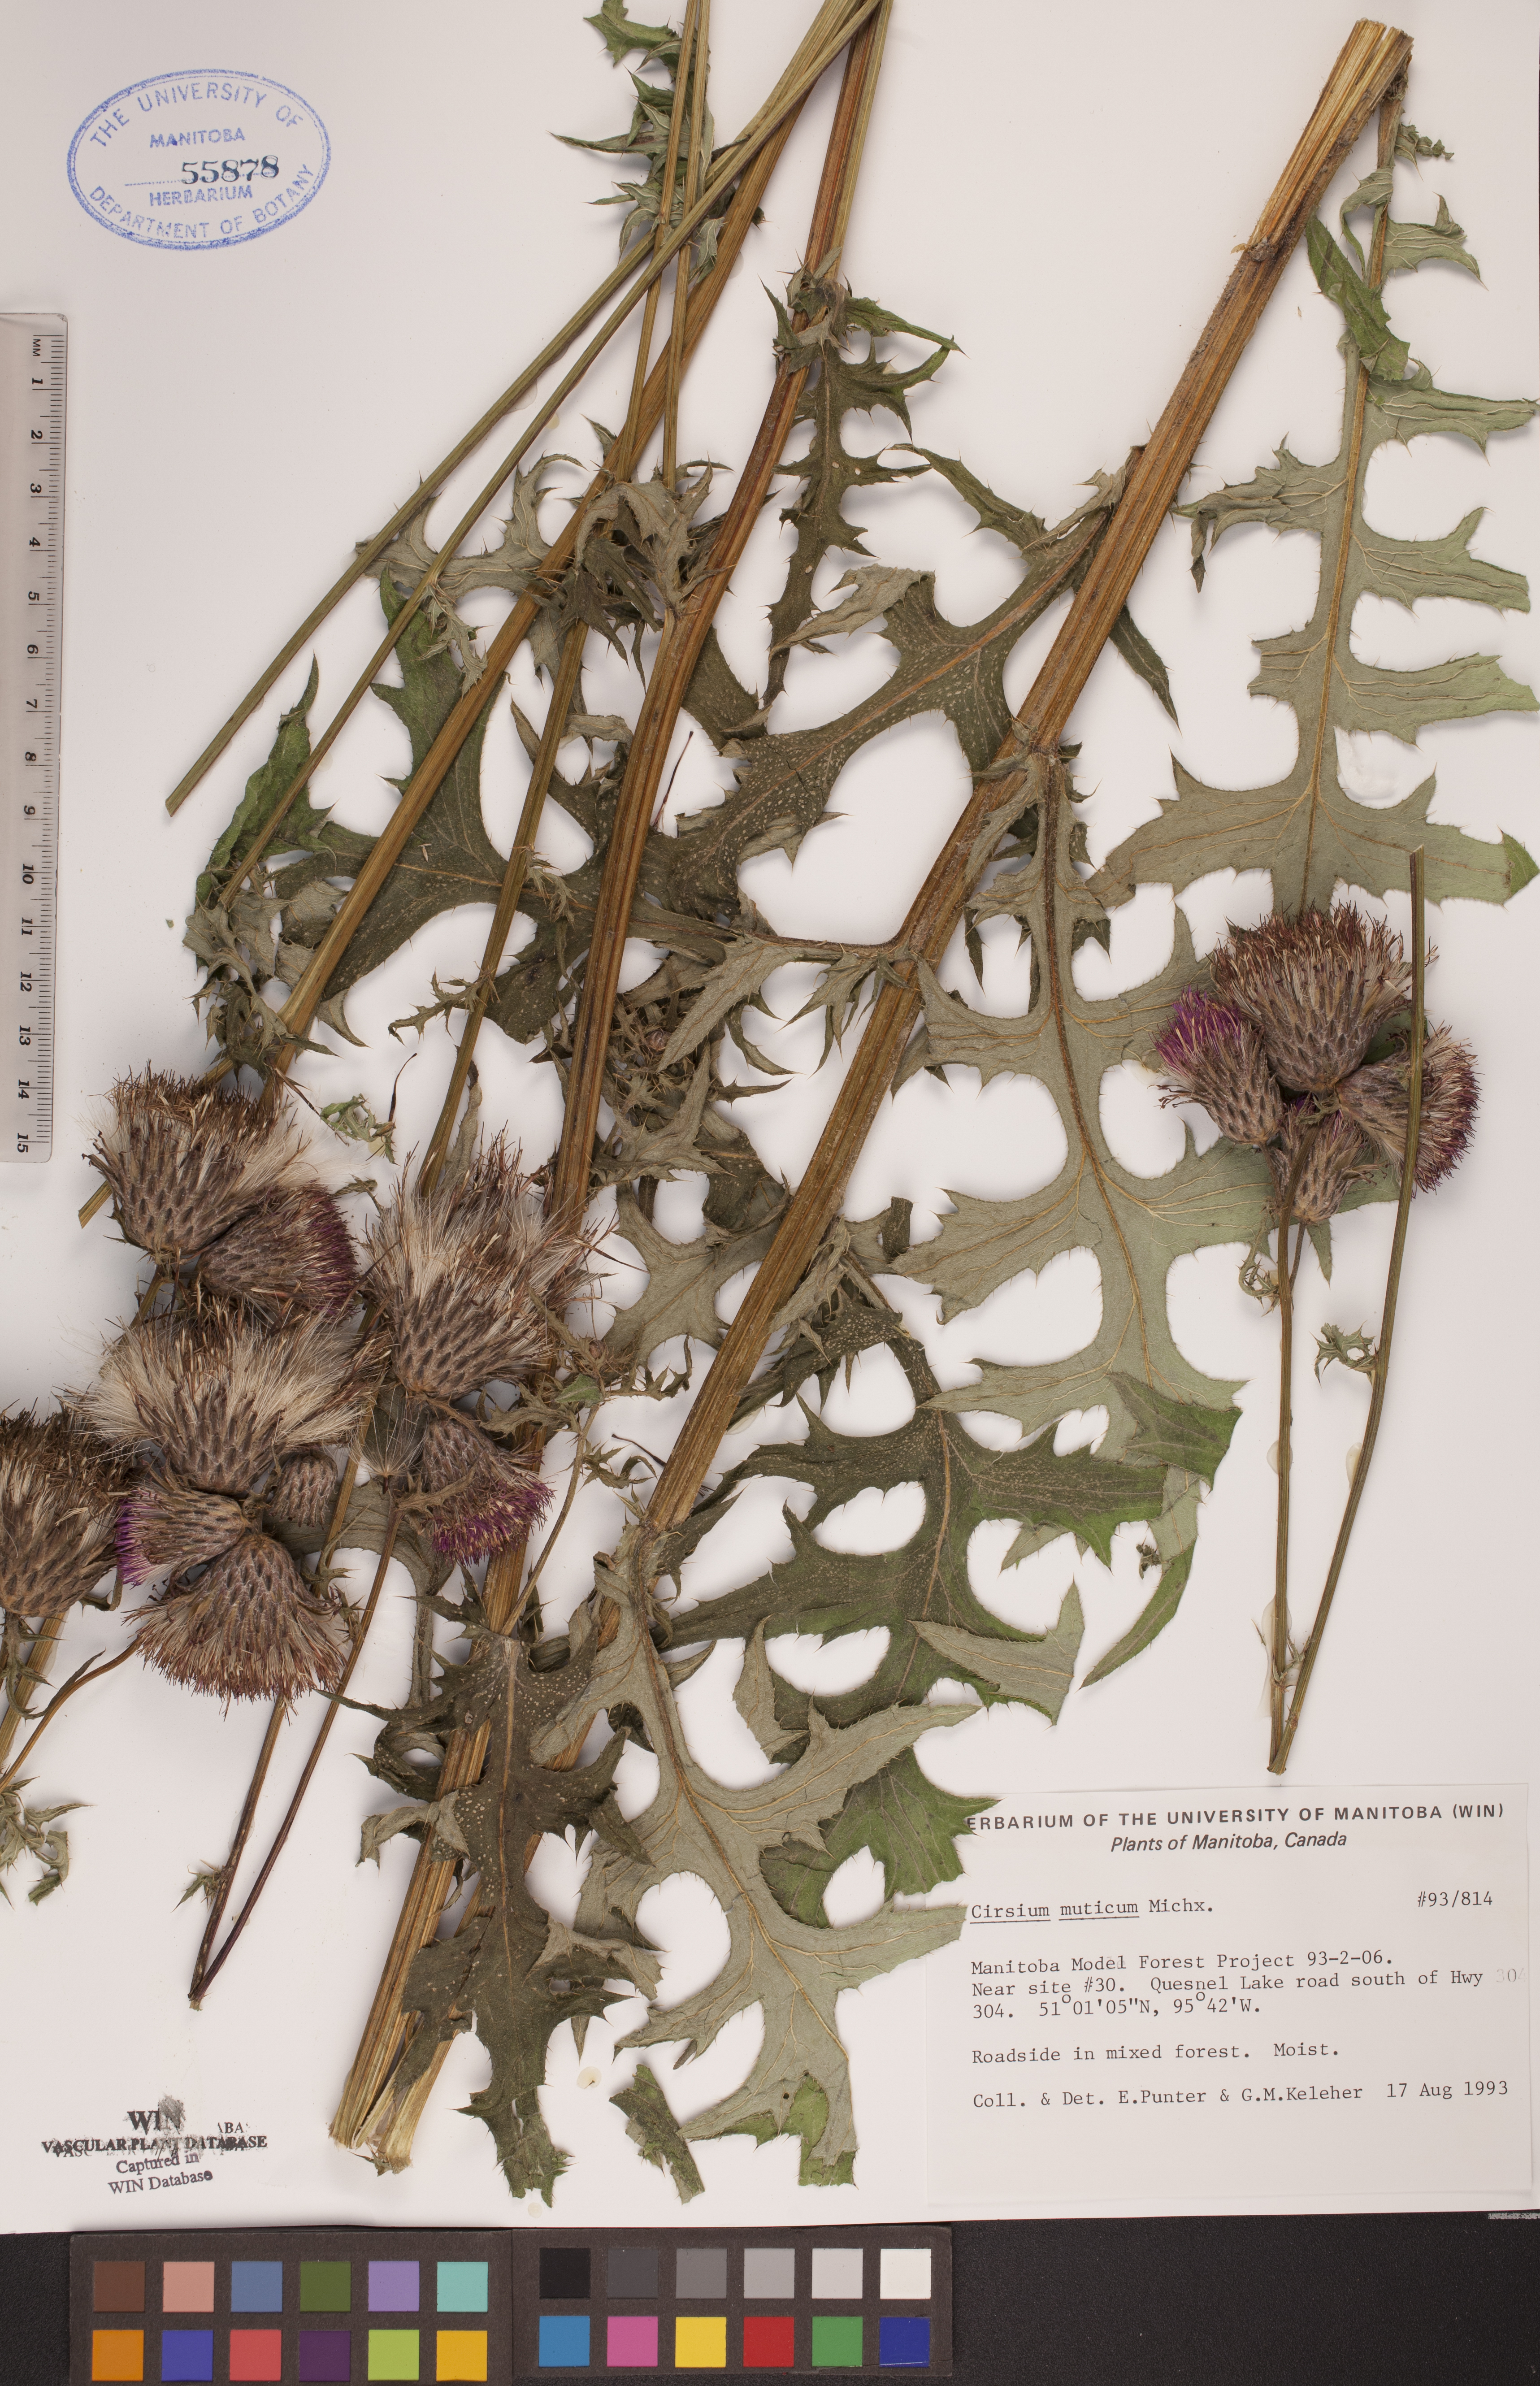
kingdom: Plantae
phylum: Tracheophyta
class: Magnoliopsida
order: Asterales
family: Asteraceae
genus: Cirsium
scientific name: Cirsium muticum
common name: Dunce-nettle
